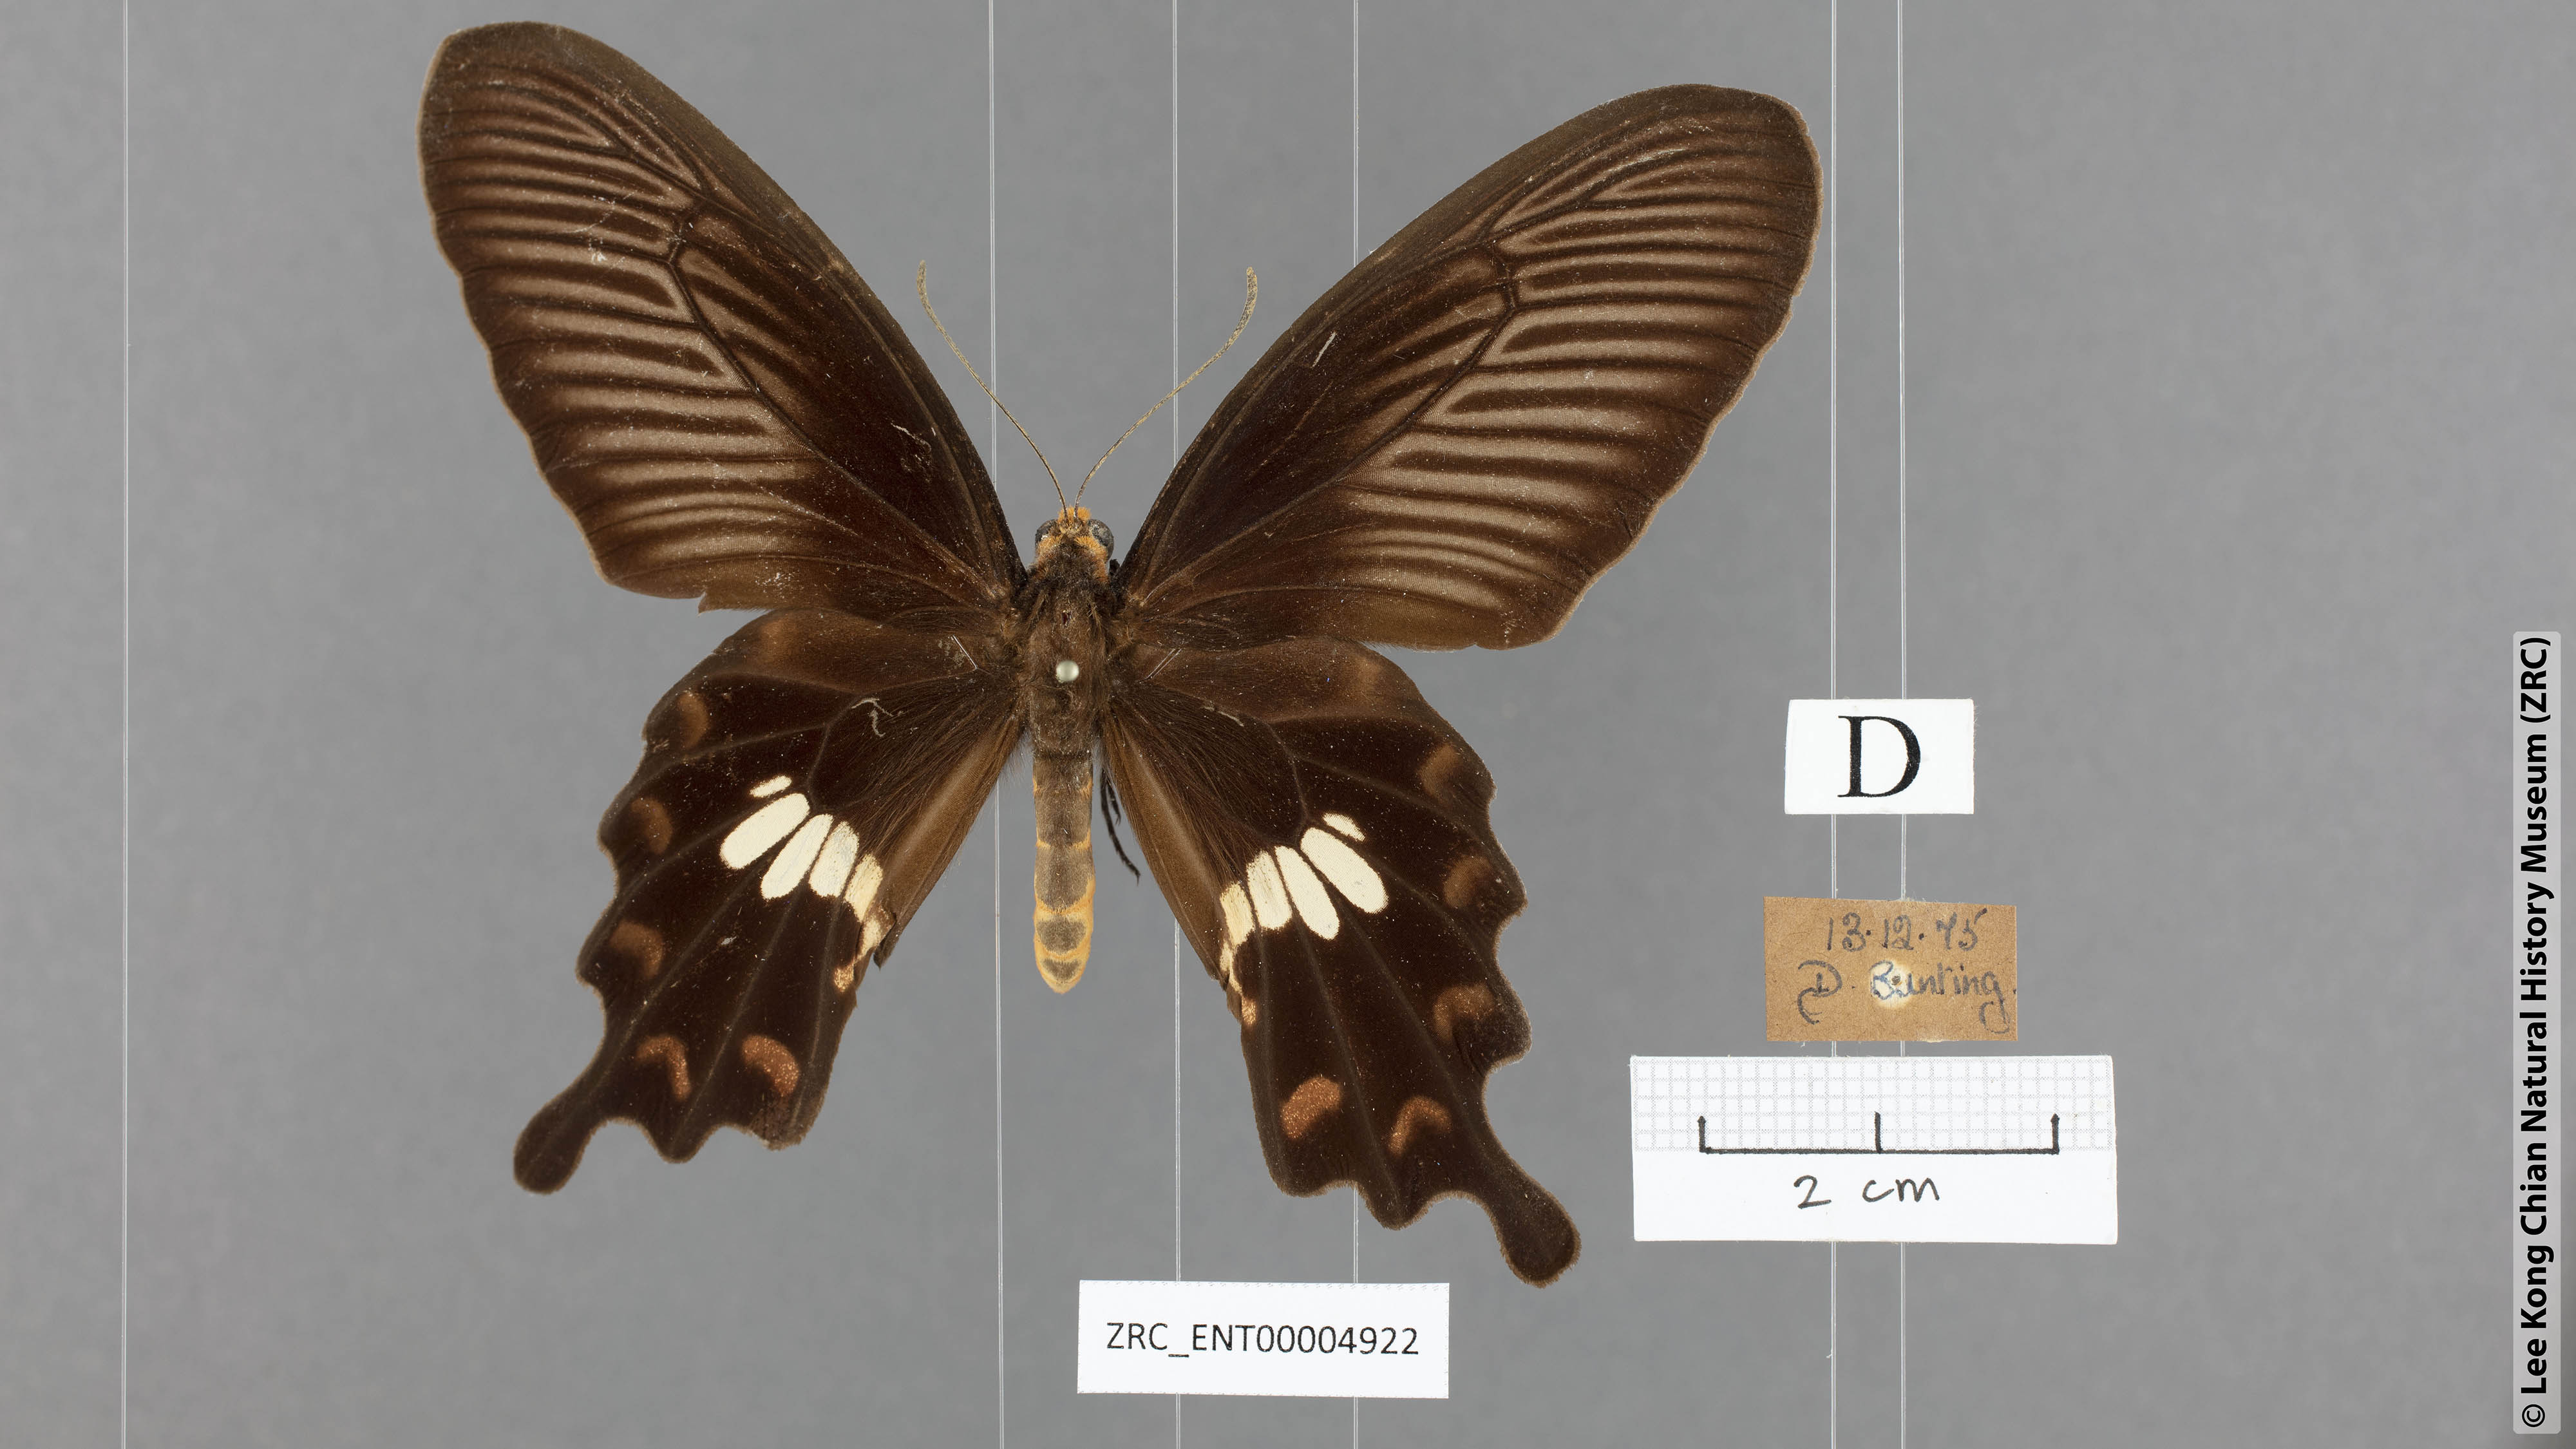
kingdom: Animalia
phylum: Arthropoda
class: Insecta
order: Lepidoptera
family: Papilionidae
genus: Pachliopta
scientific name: Pachliopta aristolochiae
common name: Common rose
